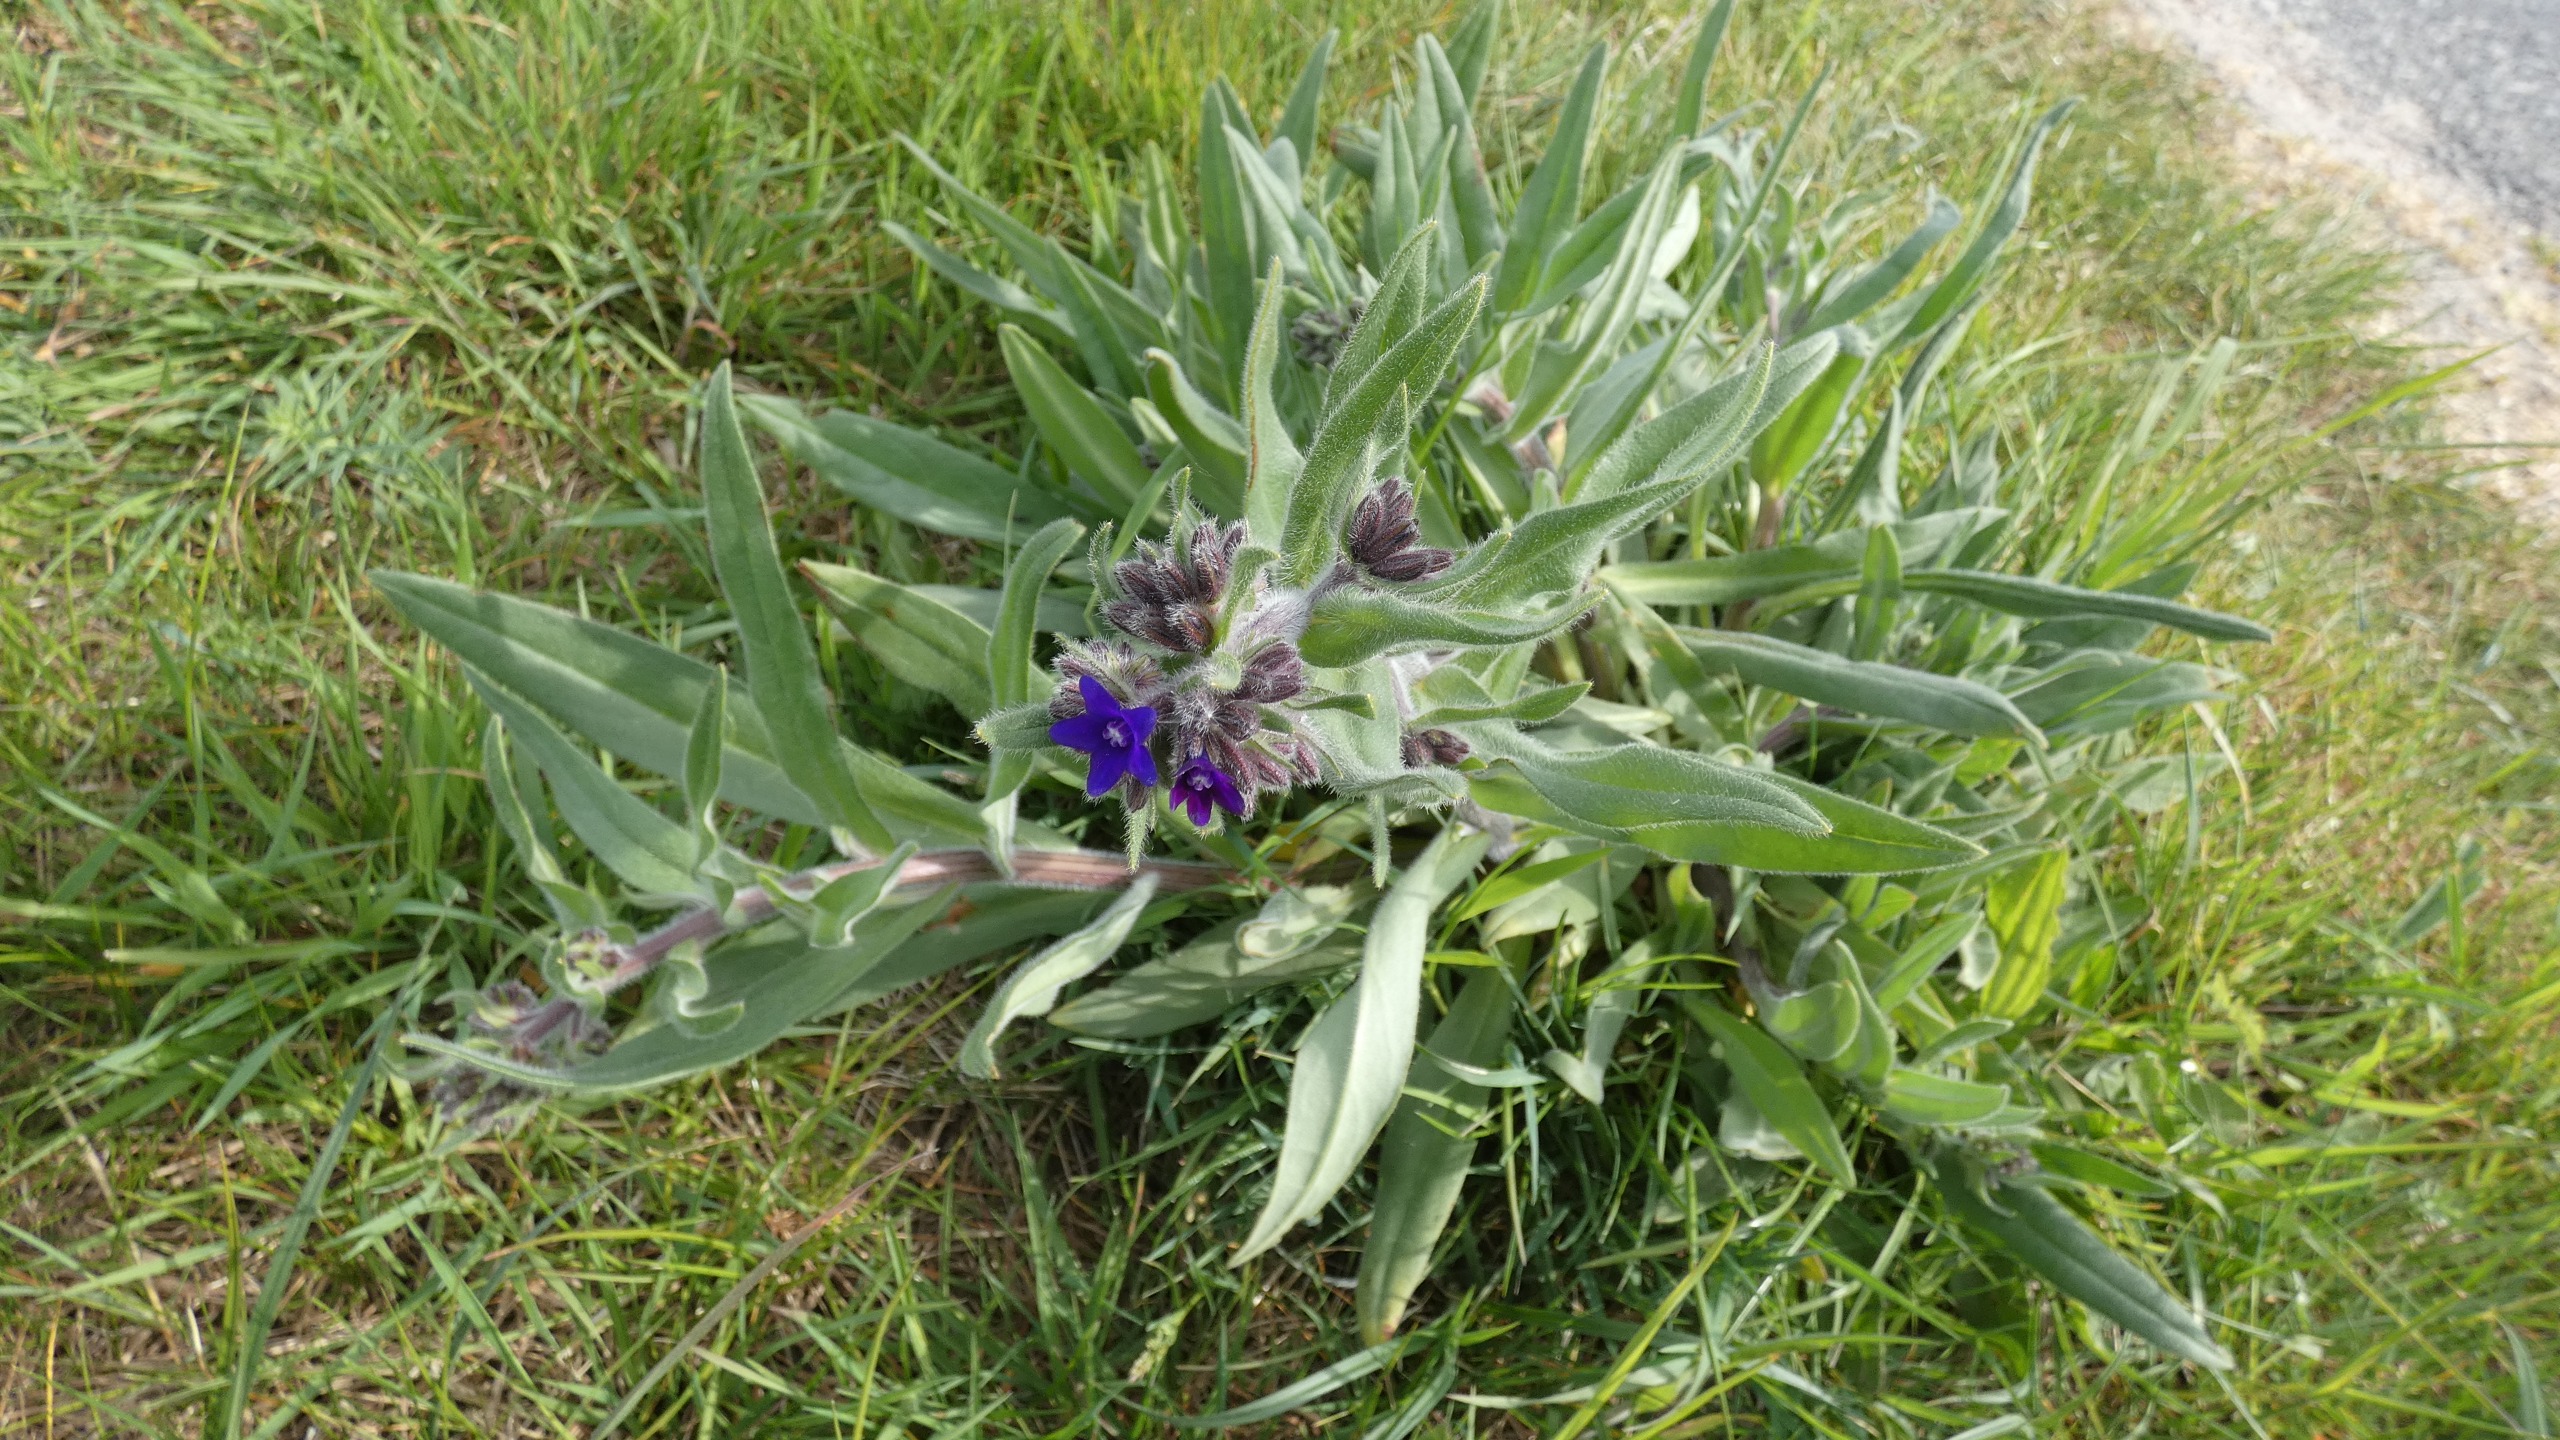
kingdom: Plantae
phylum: Tracheophyta
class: Magnoliopsida
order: Boraginales
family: Boraginaceae
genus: Anchusa
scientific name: Anchusa officinalis
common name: Læge-oksetunge
